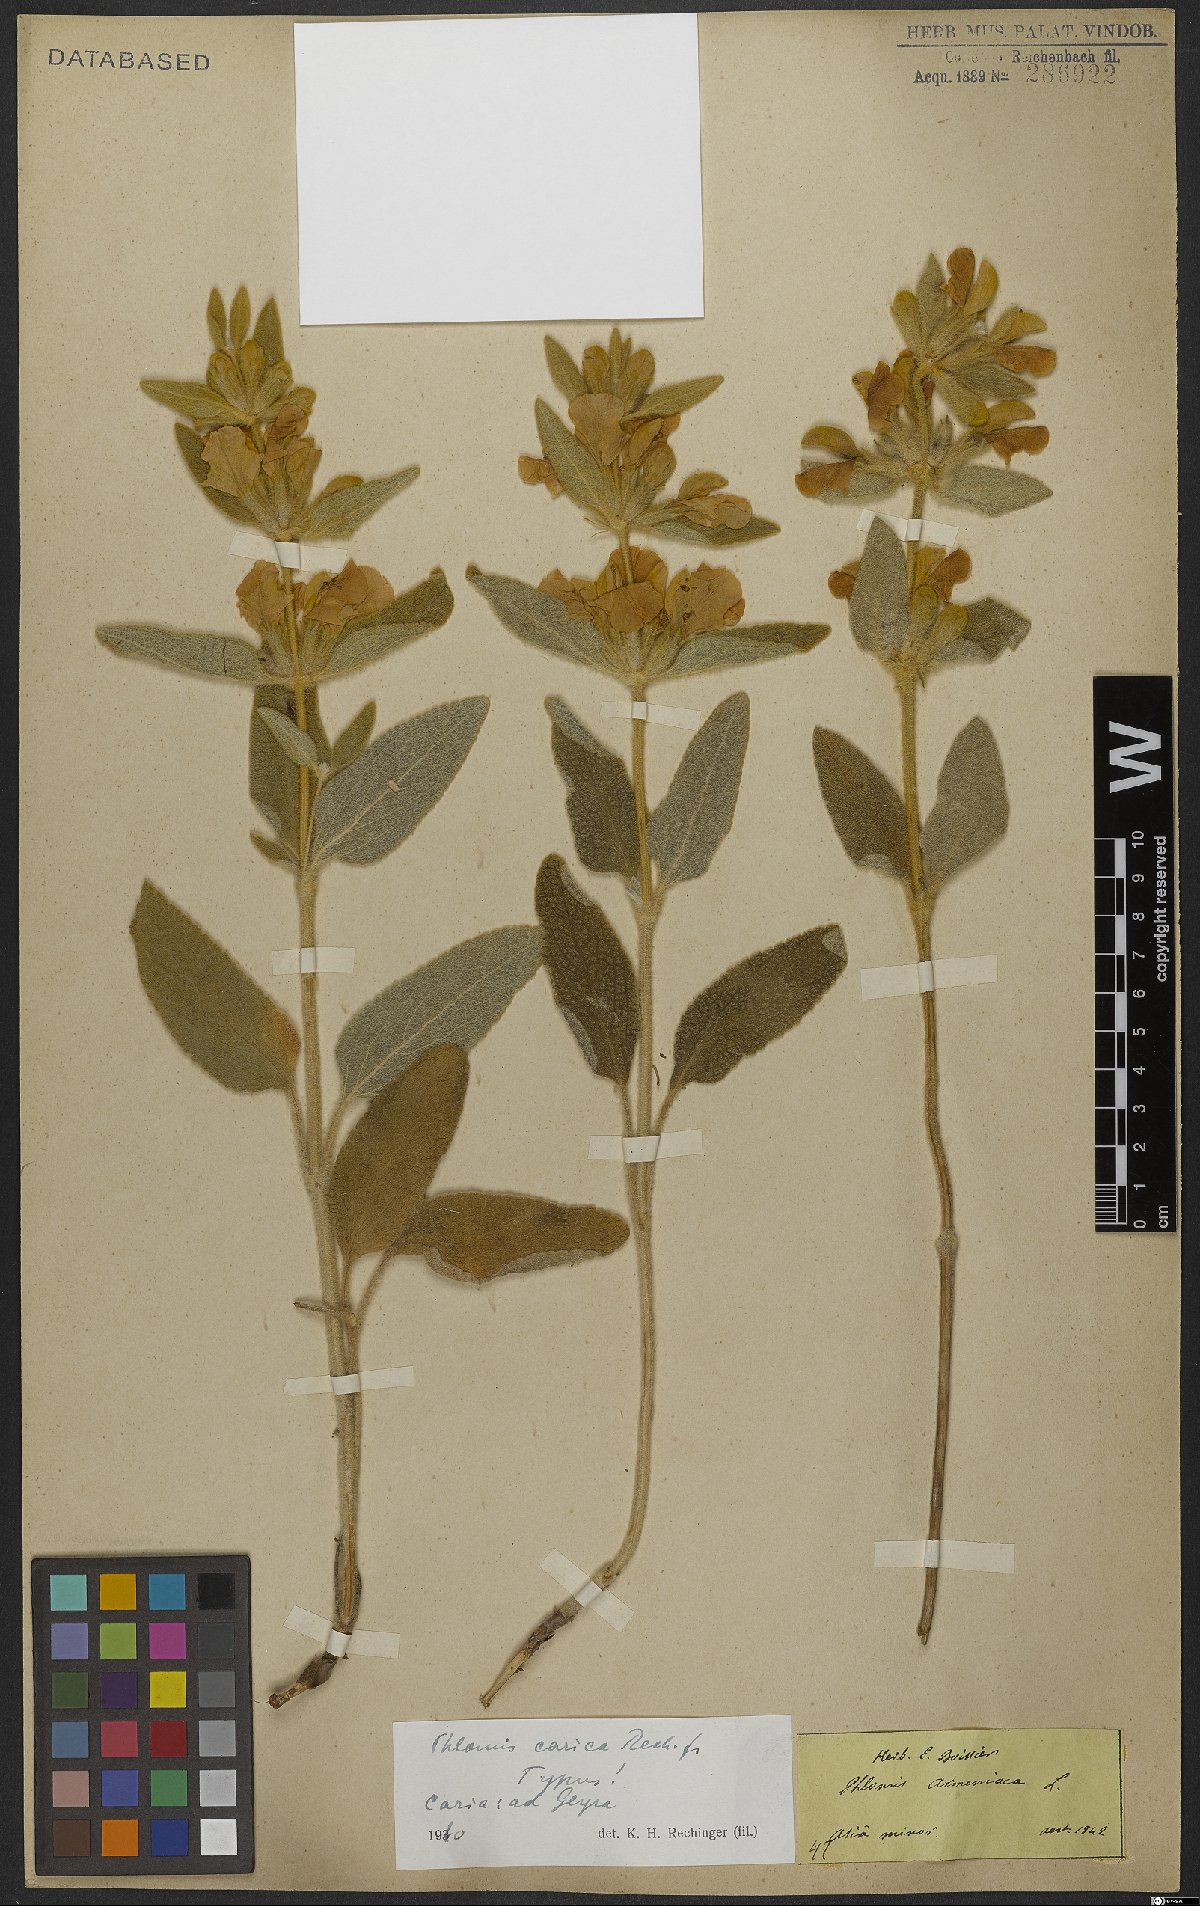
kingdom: Plantae
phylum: Tracheophyta
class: Magnoliopsida
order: Lamiales
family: Lamiaceae
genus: Phlomis
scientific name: Phlomis carica
